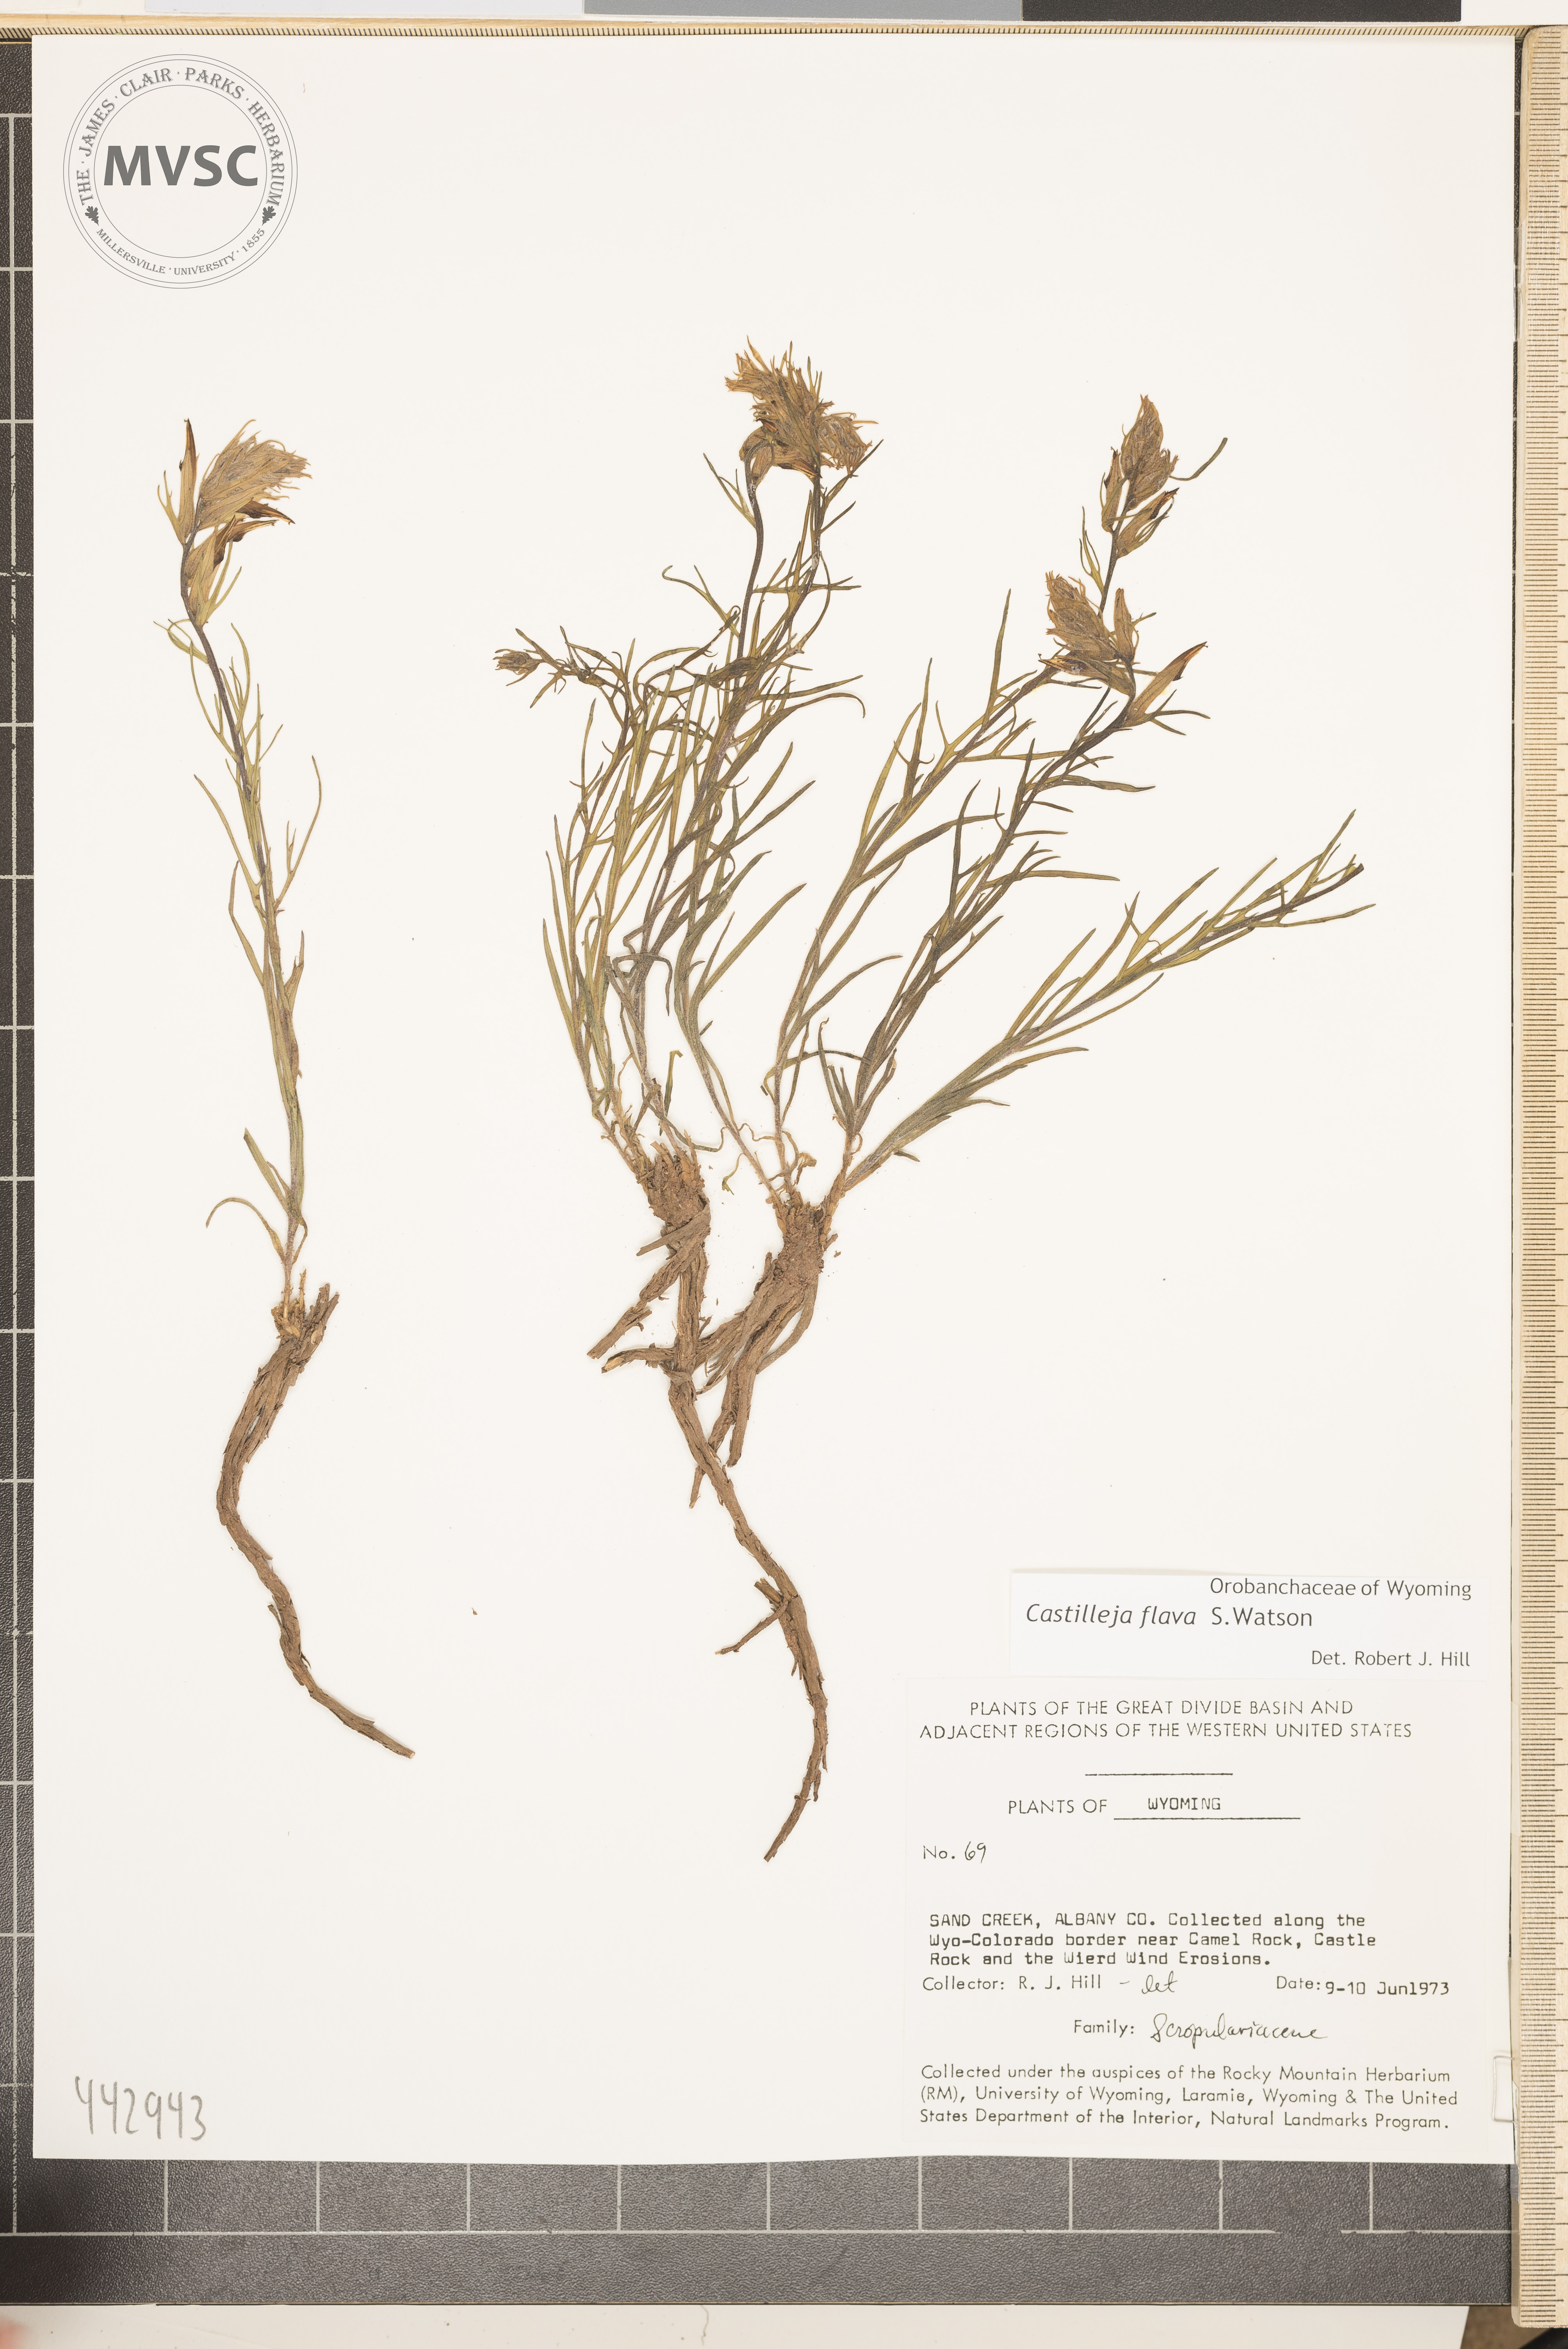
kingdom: Plantae
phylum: Tracheophyta
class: Magnoliopsida
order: Lamiales
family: Orobanchaceae
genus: Castilleja
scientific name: Castilleja flava
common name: Yellow paintbrush
